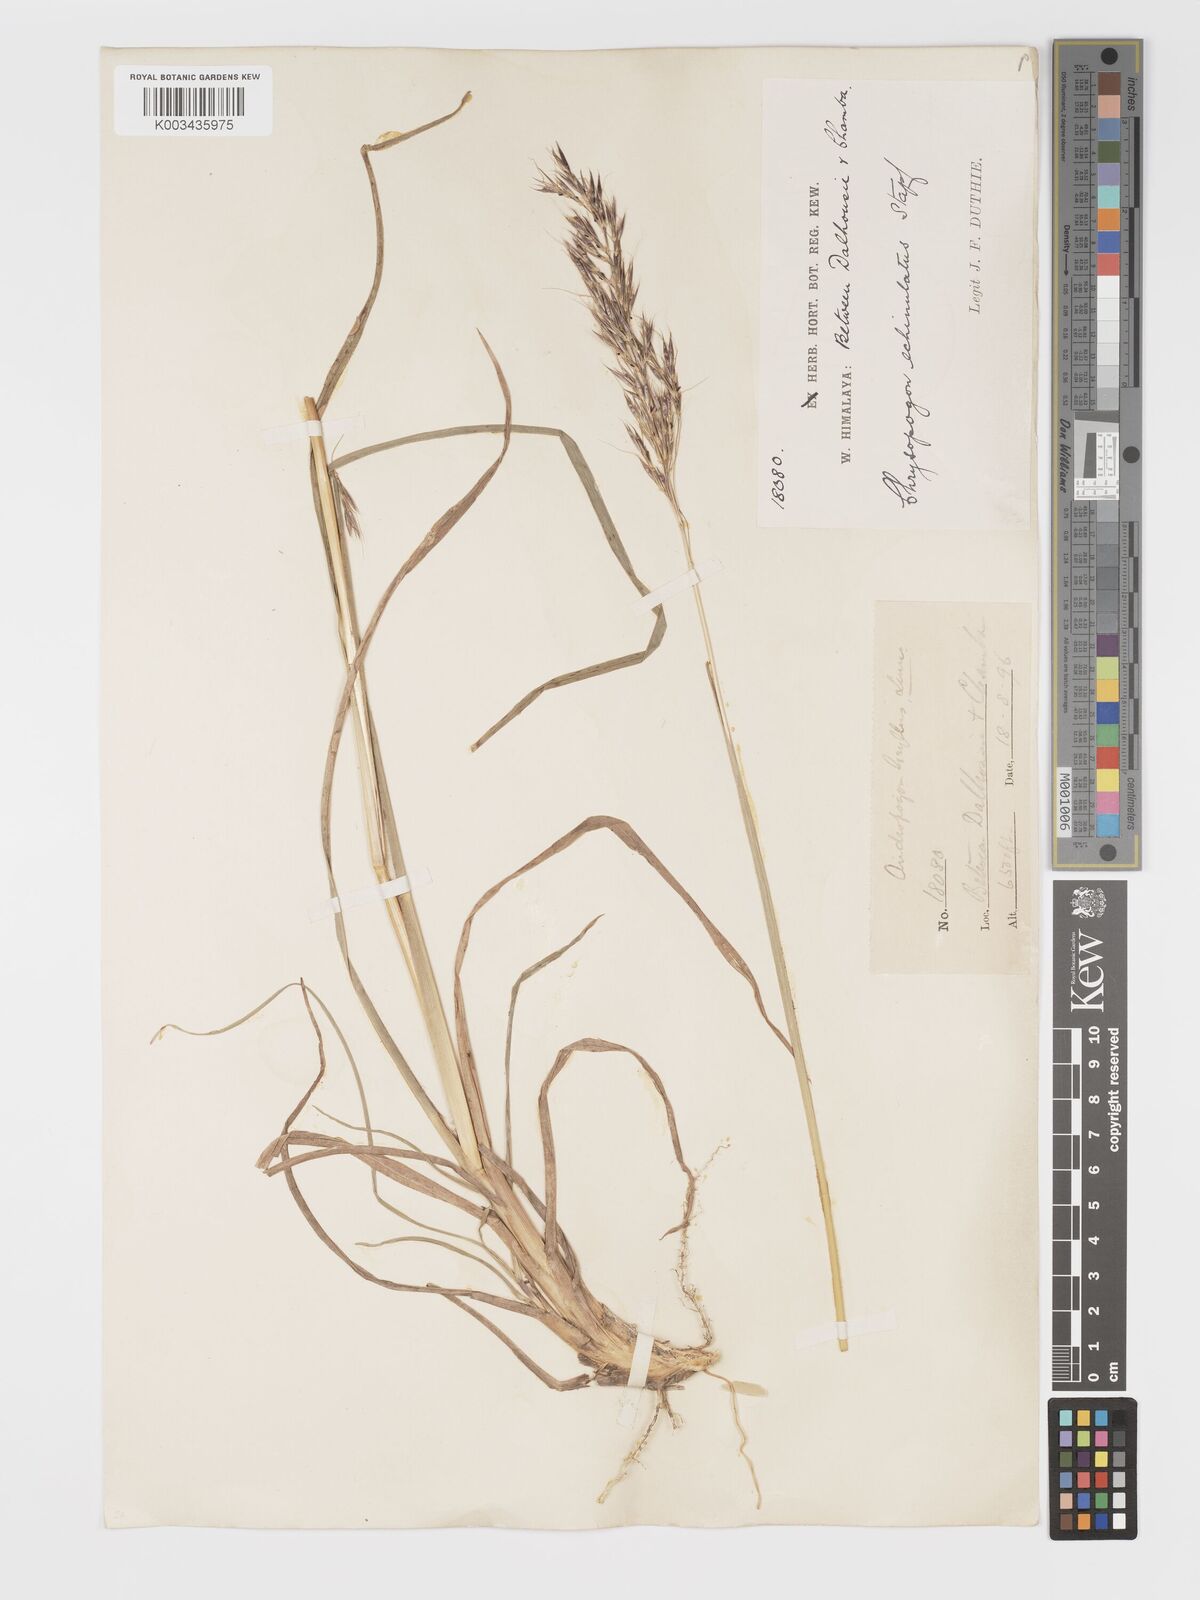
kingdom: Plantae
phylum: Tracheophyta
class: Liliopsida
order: Poales
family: Poaceae
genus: Chrysopogon
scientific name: Chrysopogon gryllus
